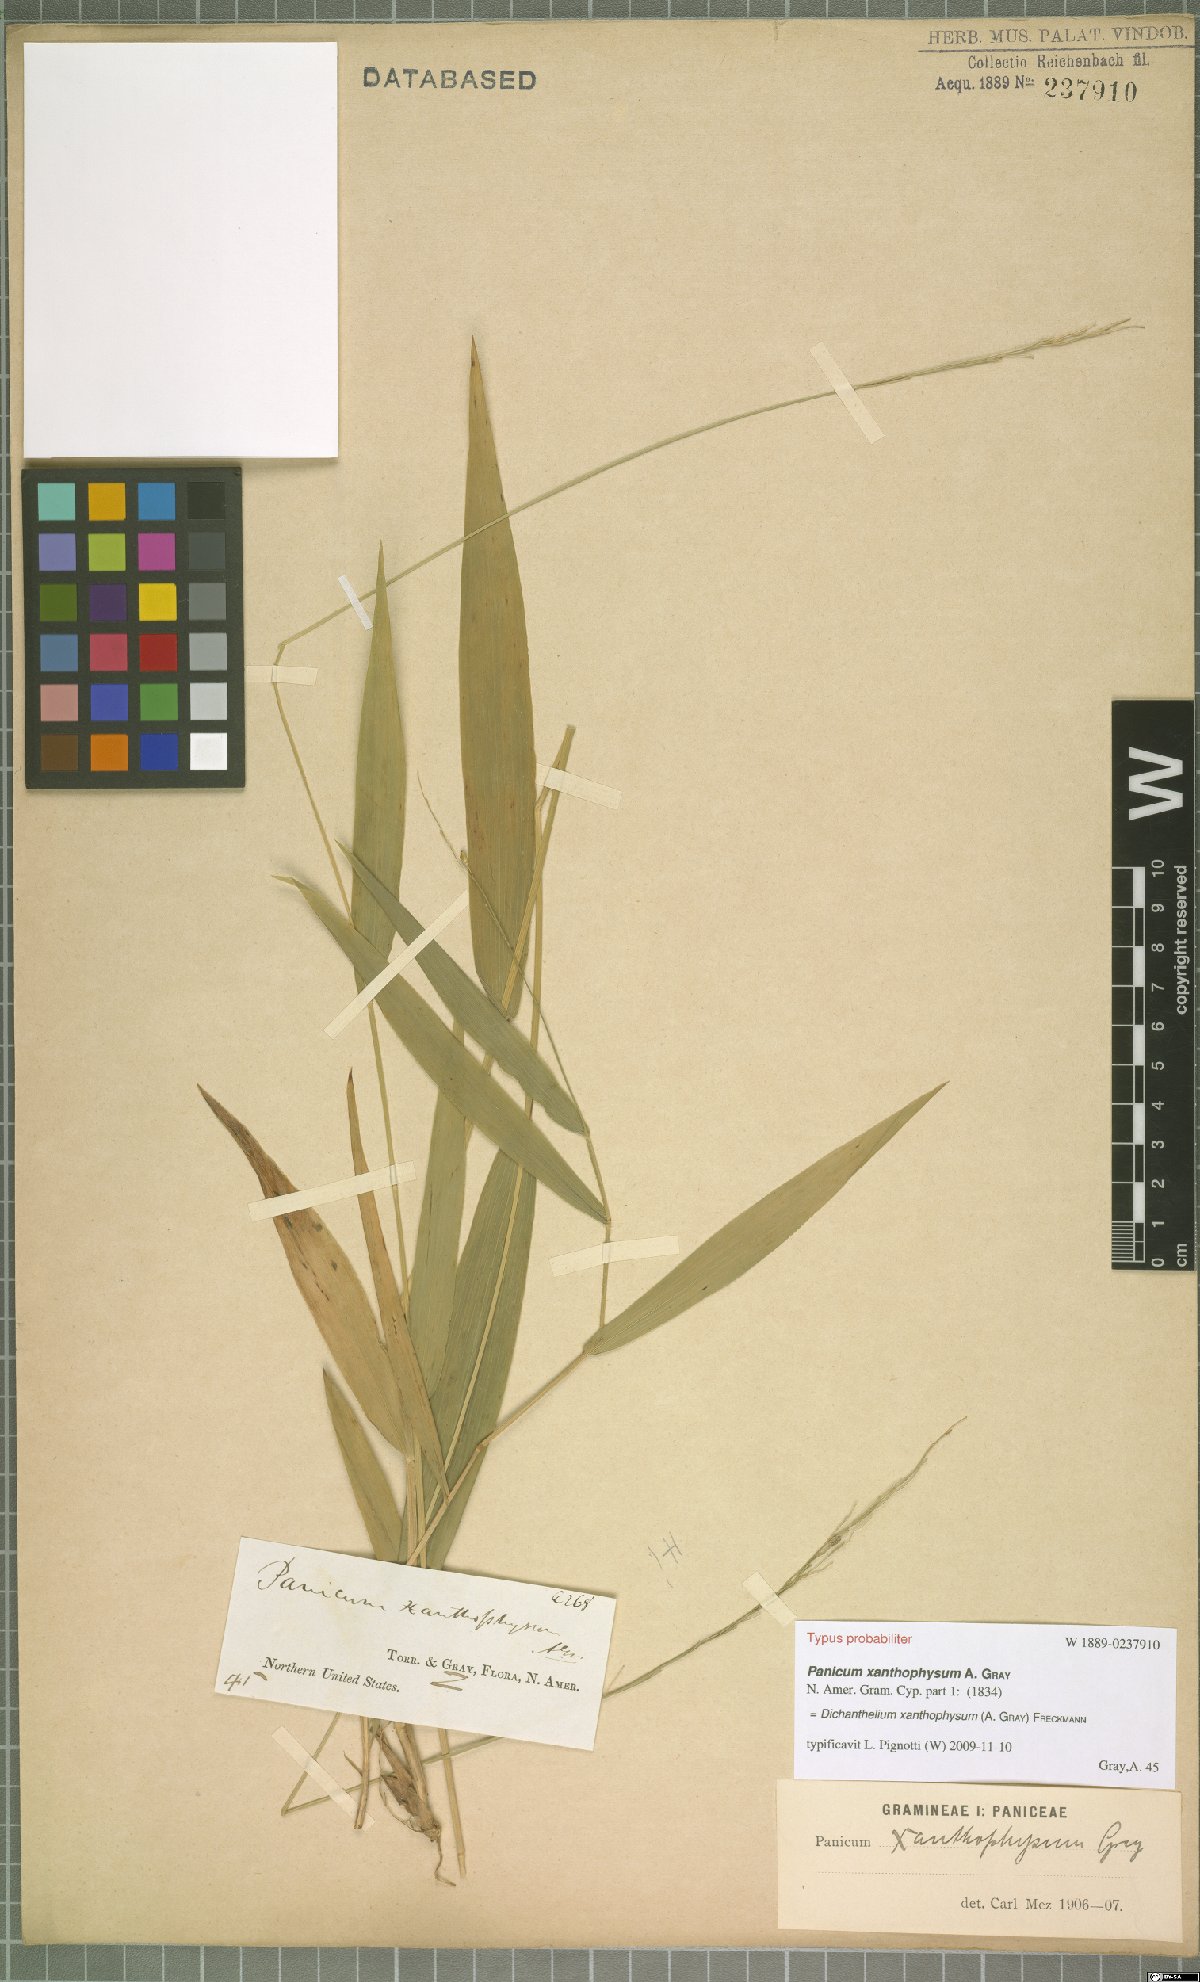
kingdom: Plantae
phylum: Tracheophyta
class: Liliopsida
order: Poales
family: Poaceae
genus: Dichanthelium
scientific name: Dichanthelium xanthophysum
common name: Pale panicgrass
